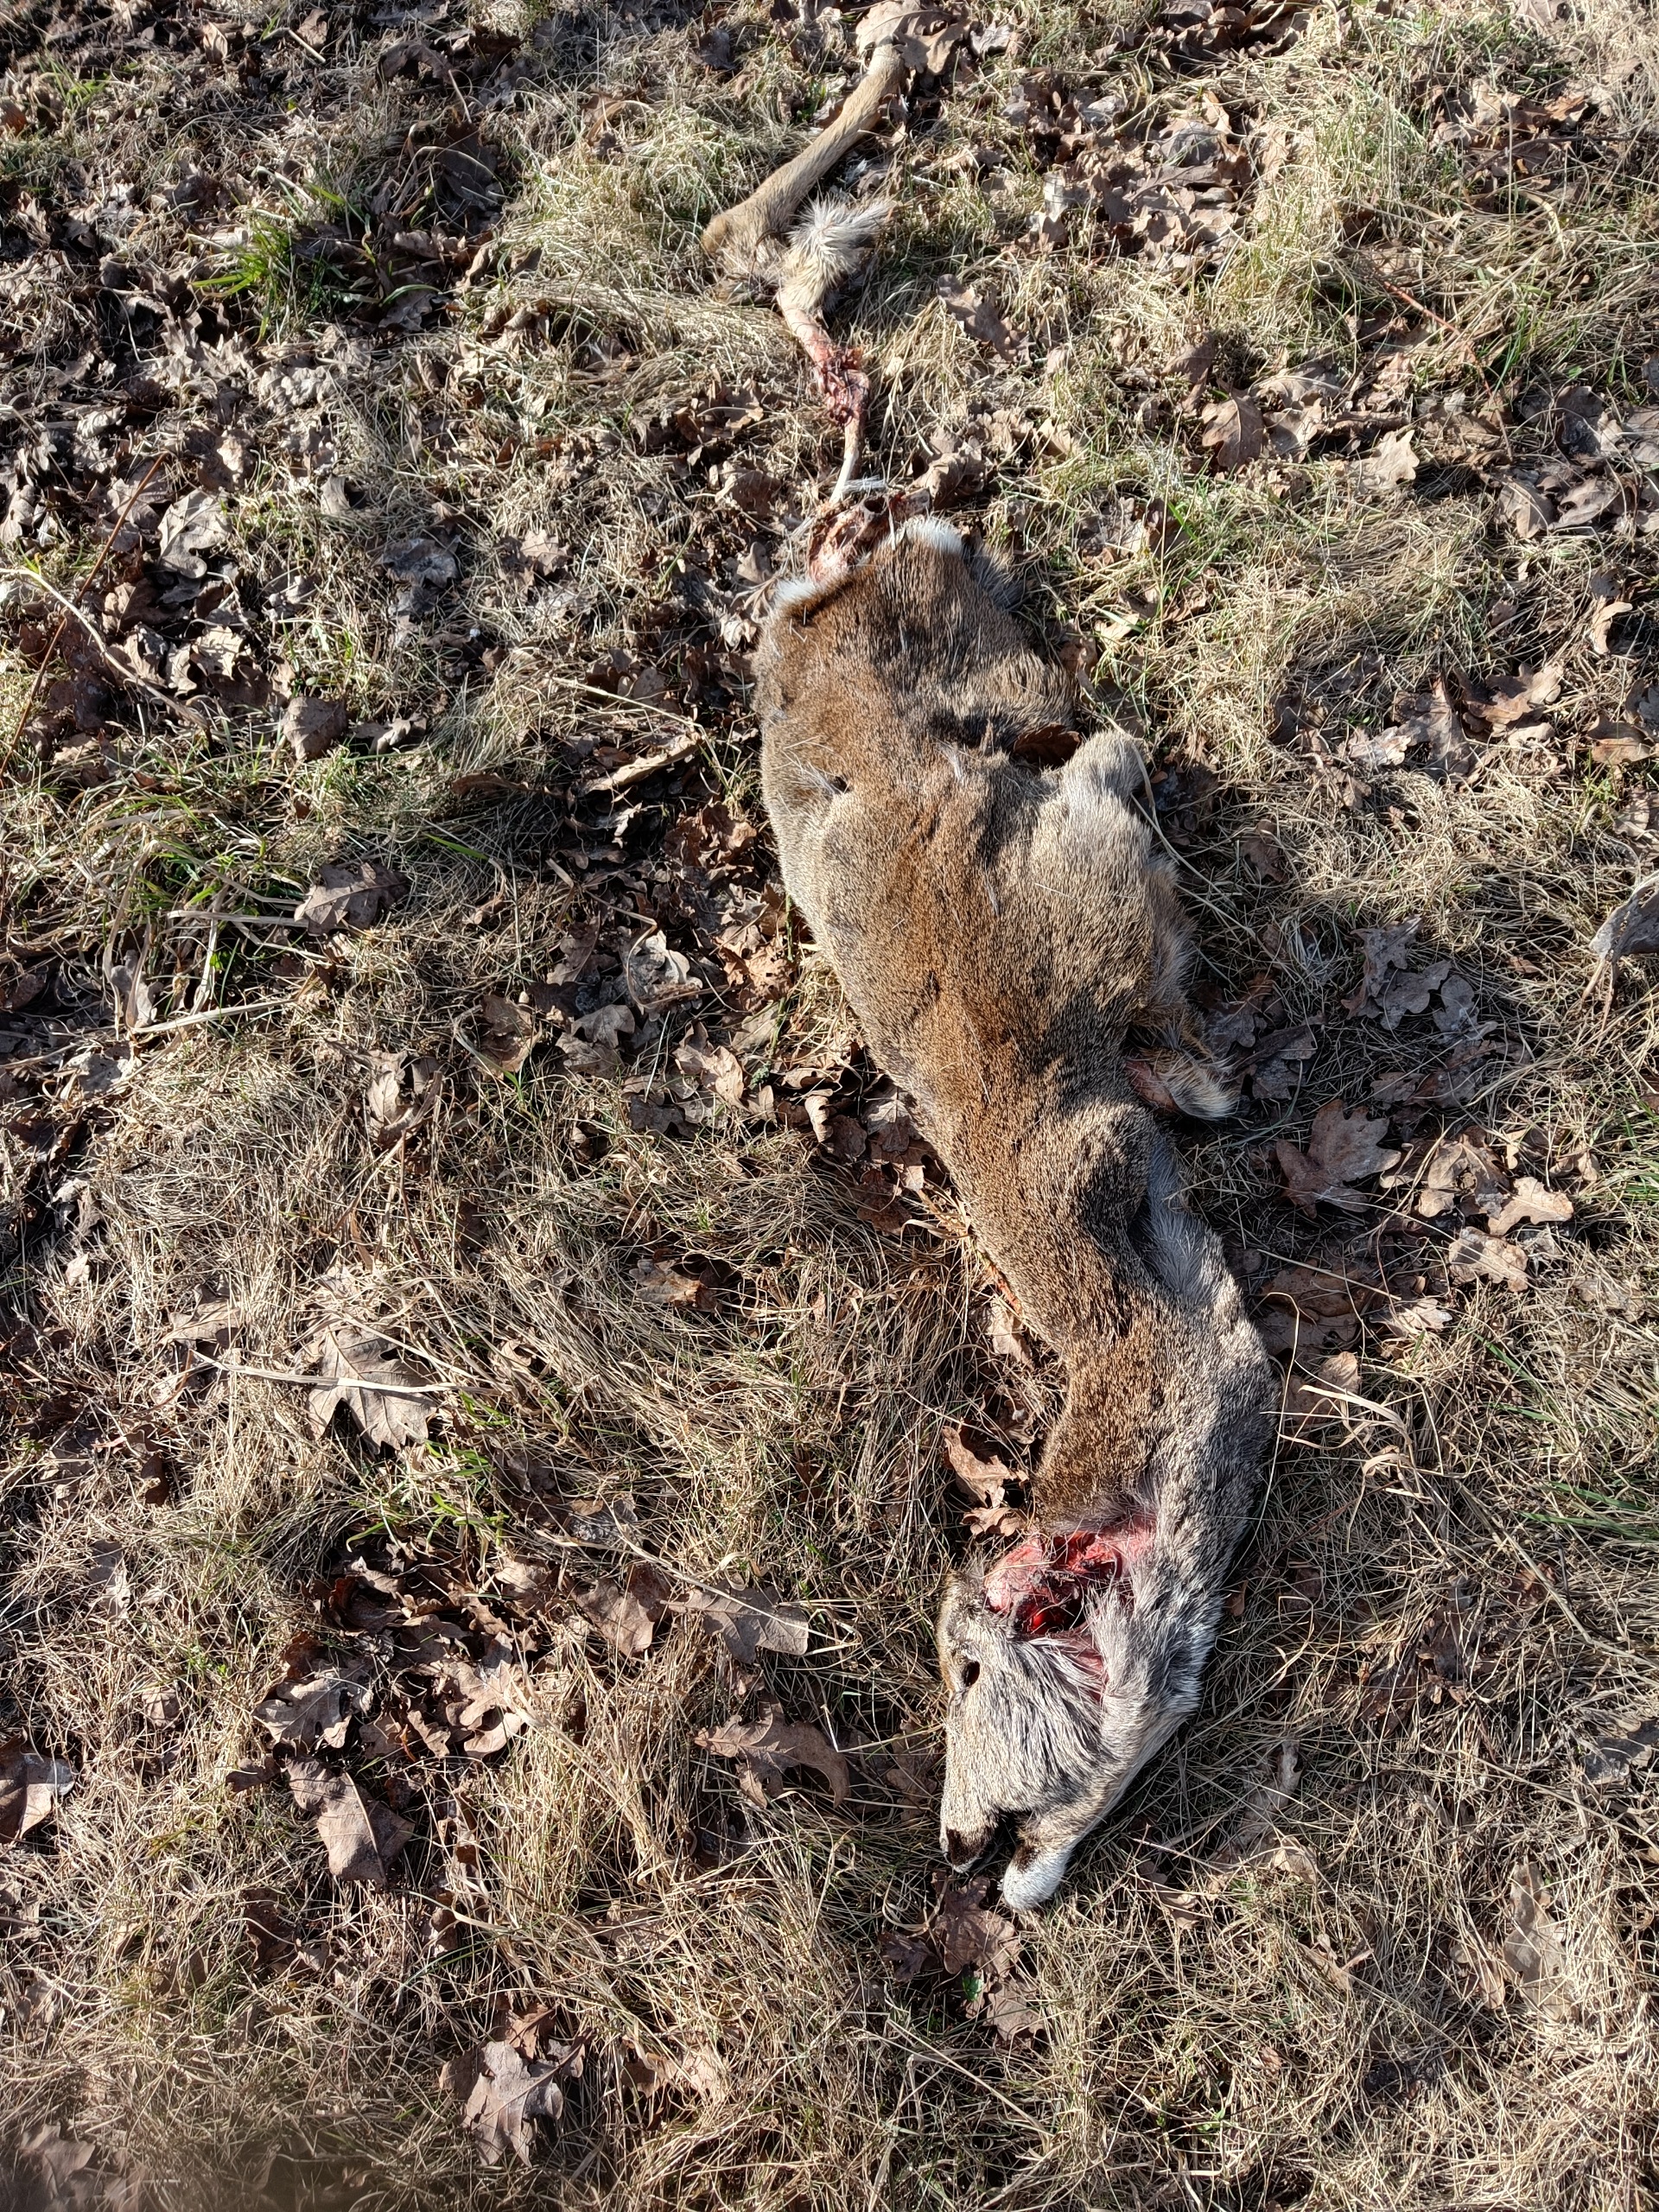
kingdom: Animalia
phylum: Chordata
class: Mammalia
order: Artiodactyla
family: Cervidae
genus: Capreolus
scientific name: Capreolus capreolus
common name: Rådyr
